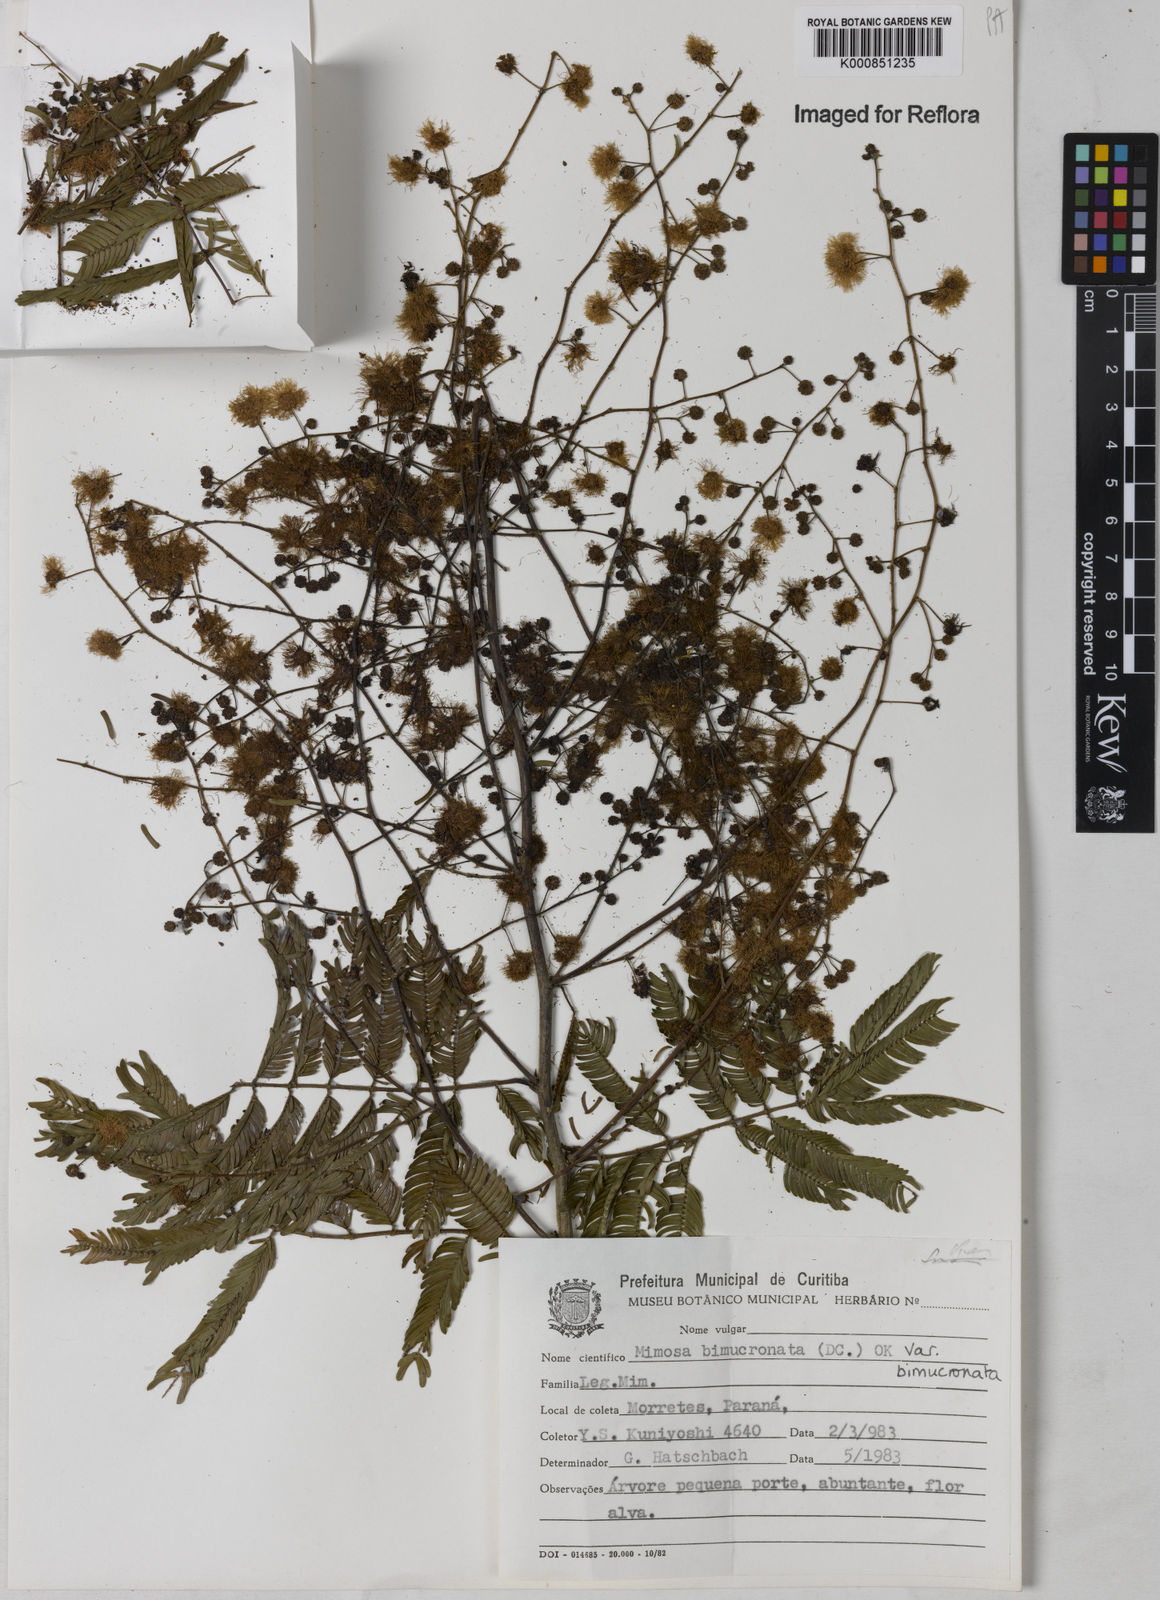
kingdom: Plantae
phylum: Tracheophyta
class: Magnoliopsida
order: Fabales
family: Fabaceae
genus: Mimosa
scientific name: Mimosa bimucronata
